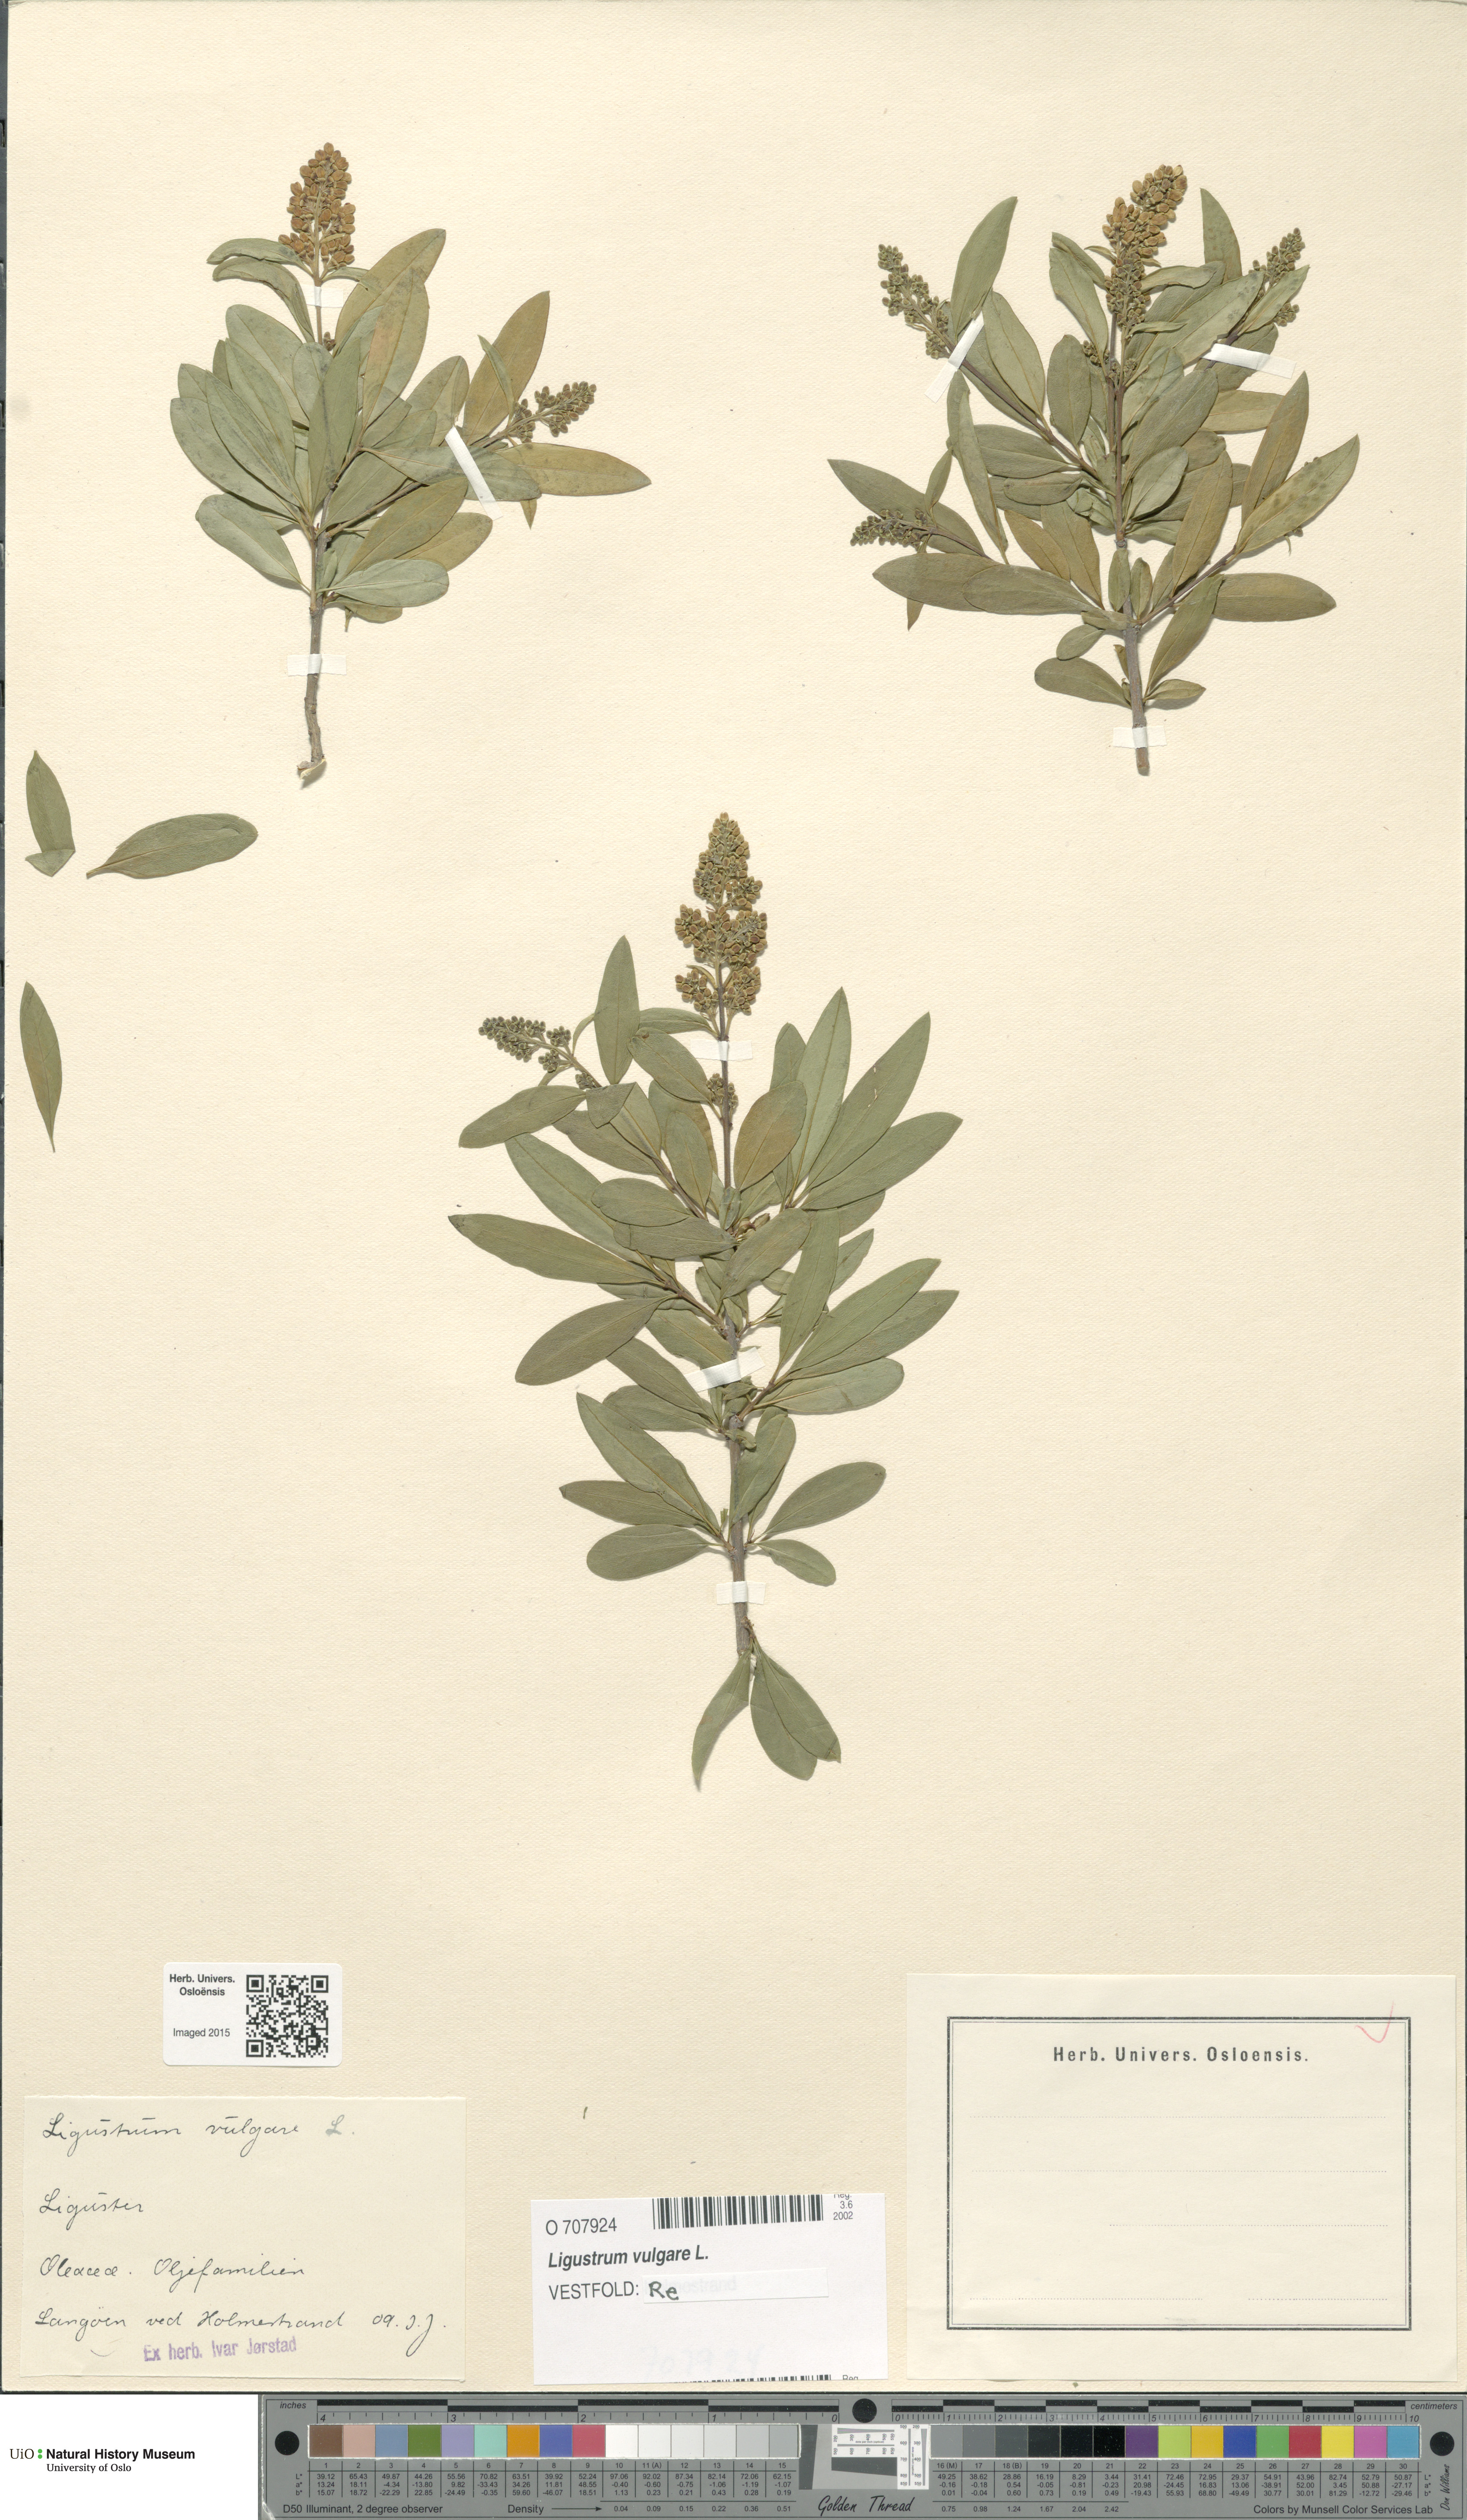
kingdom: Plantae
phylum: Tracheophyta
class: Magnoliopsida
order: Lamiales
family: Oleaceae
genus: Ligustrum
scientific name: Ligustrum vulgare
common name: Wild privet
